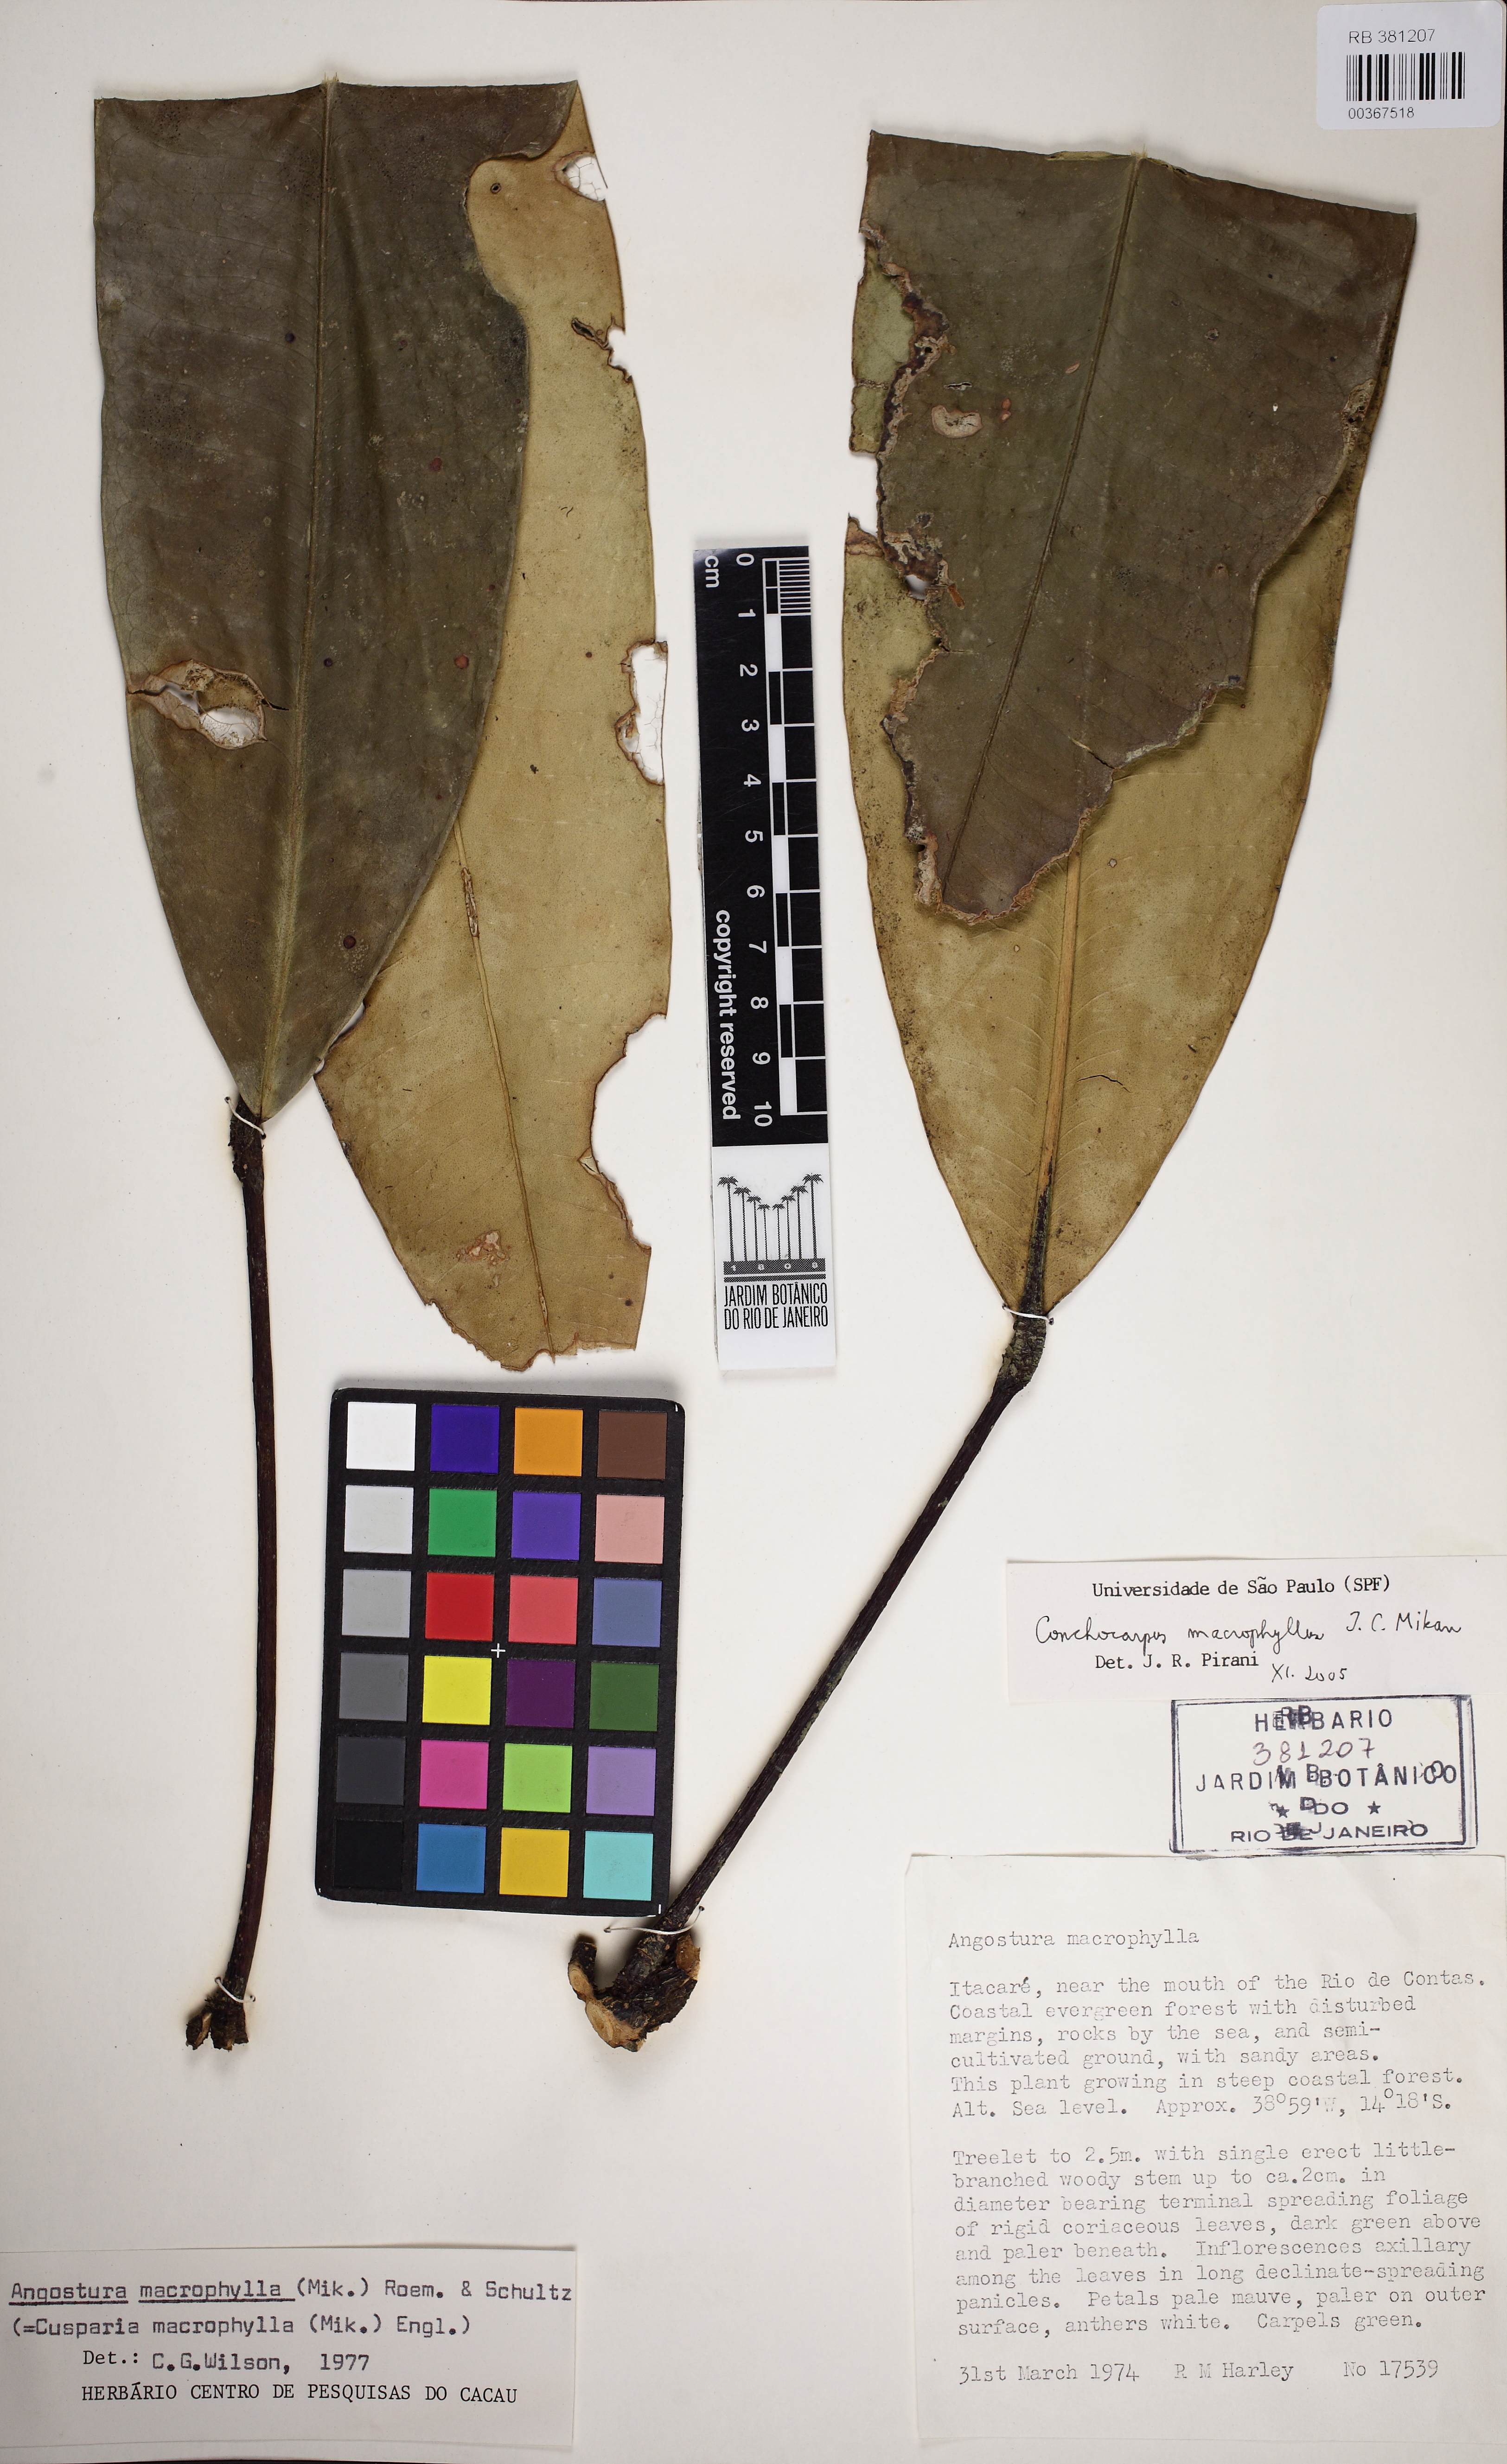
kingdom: Plantae
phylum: Tracheophyta
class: Magnoliopsida
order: Sapindales
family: Rutaceae
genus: Conchocarpus
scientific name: Conchocarpus macrophyllus
